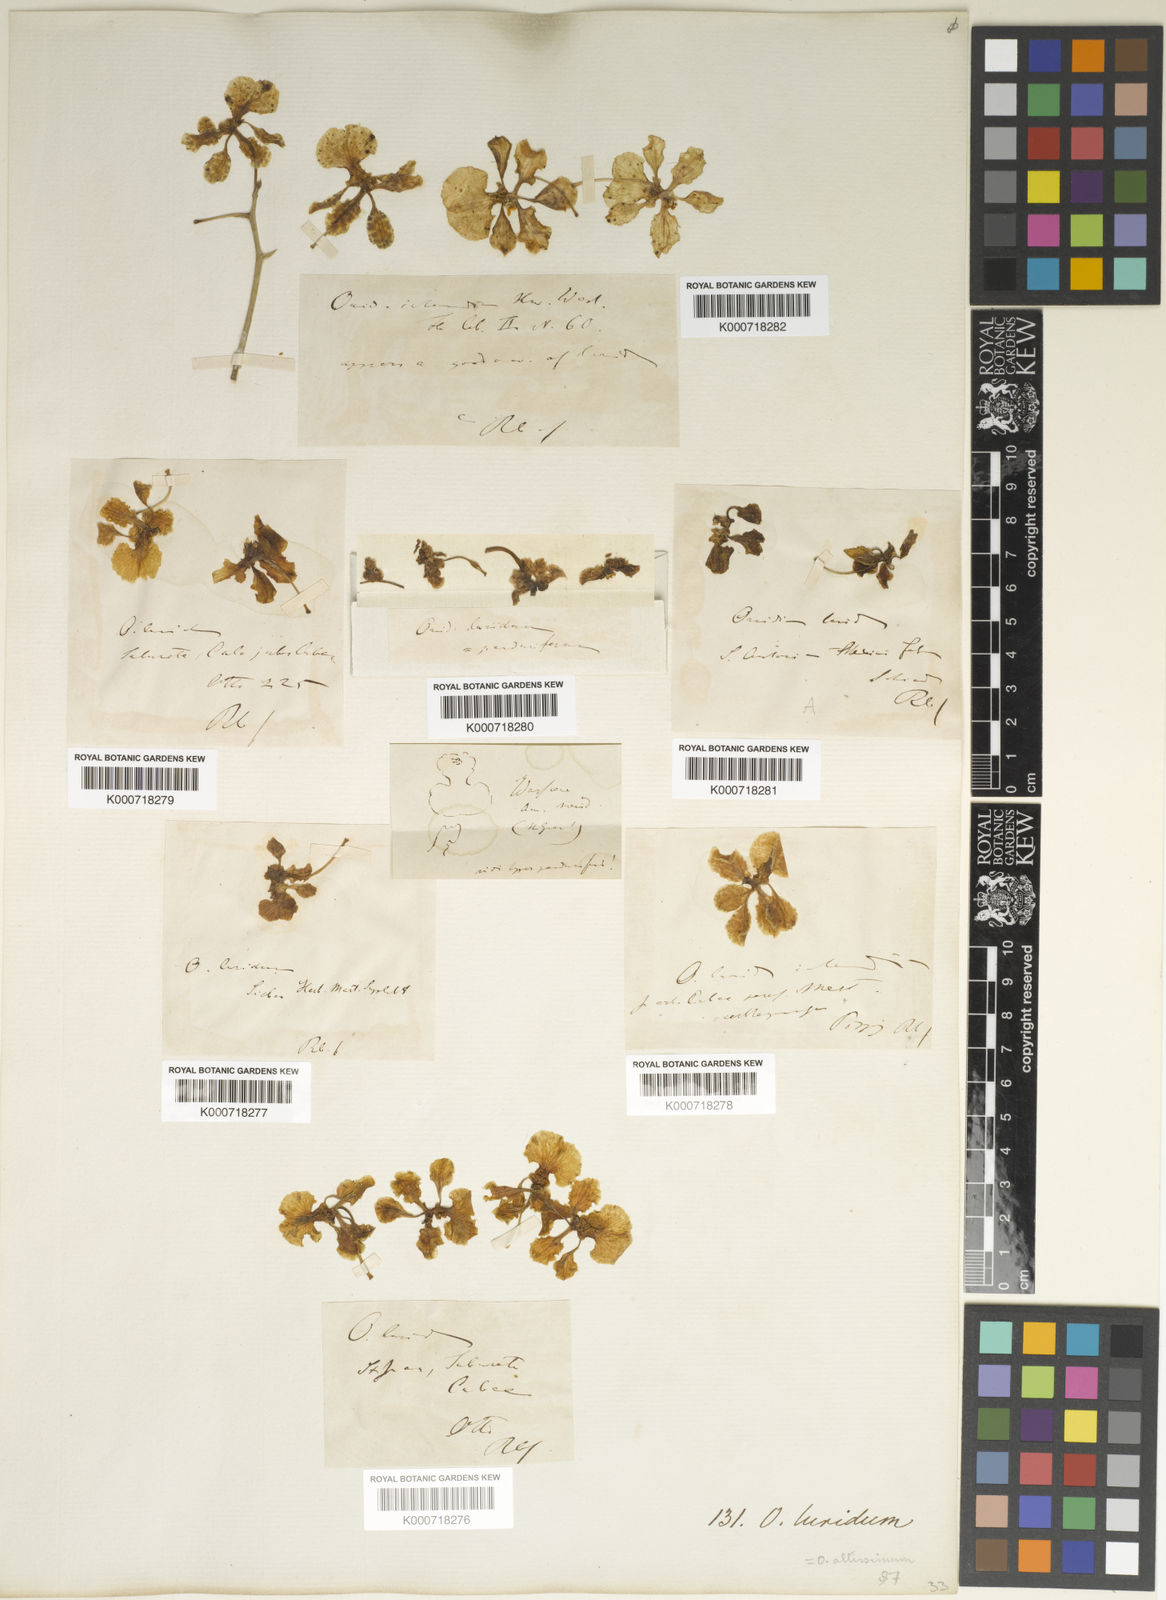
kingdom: Plantae
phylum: Tracheophyta
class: Liliopsida
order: Asparagales
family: Orchidaceae
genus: Trichocentrum
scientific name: Trichocentrum luridum
